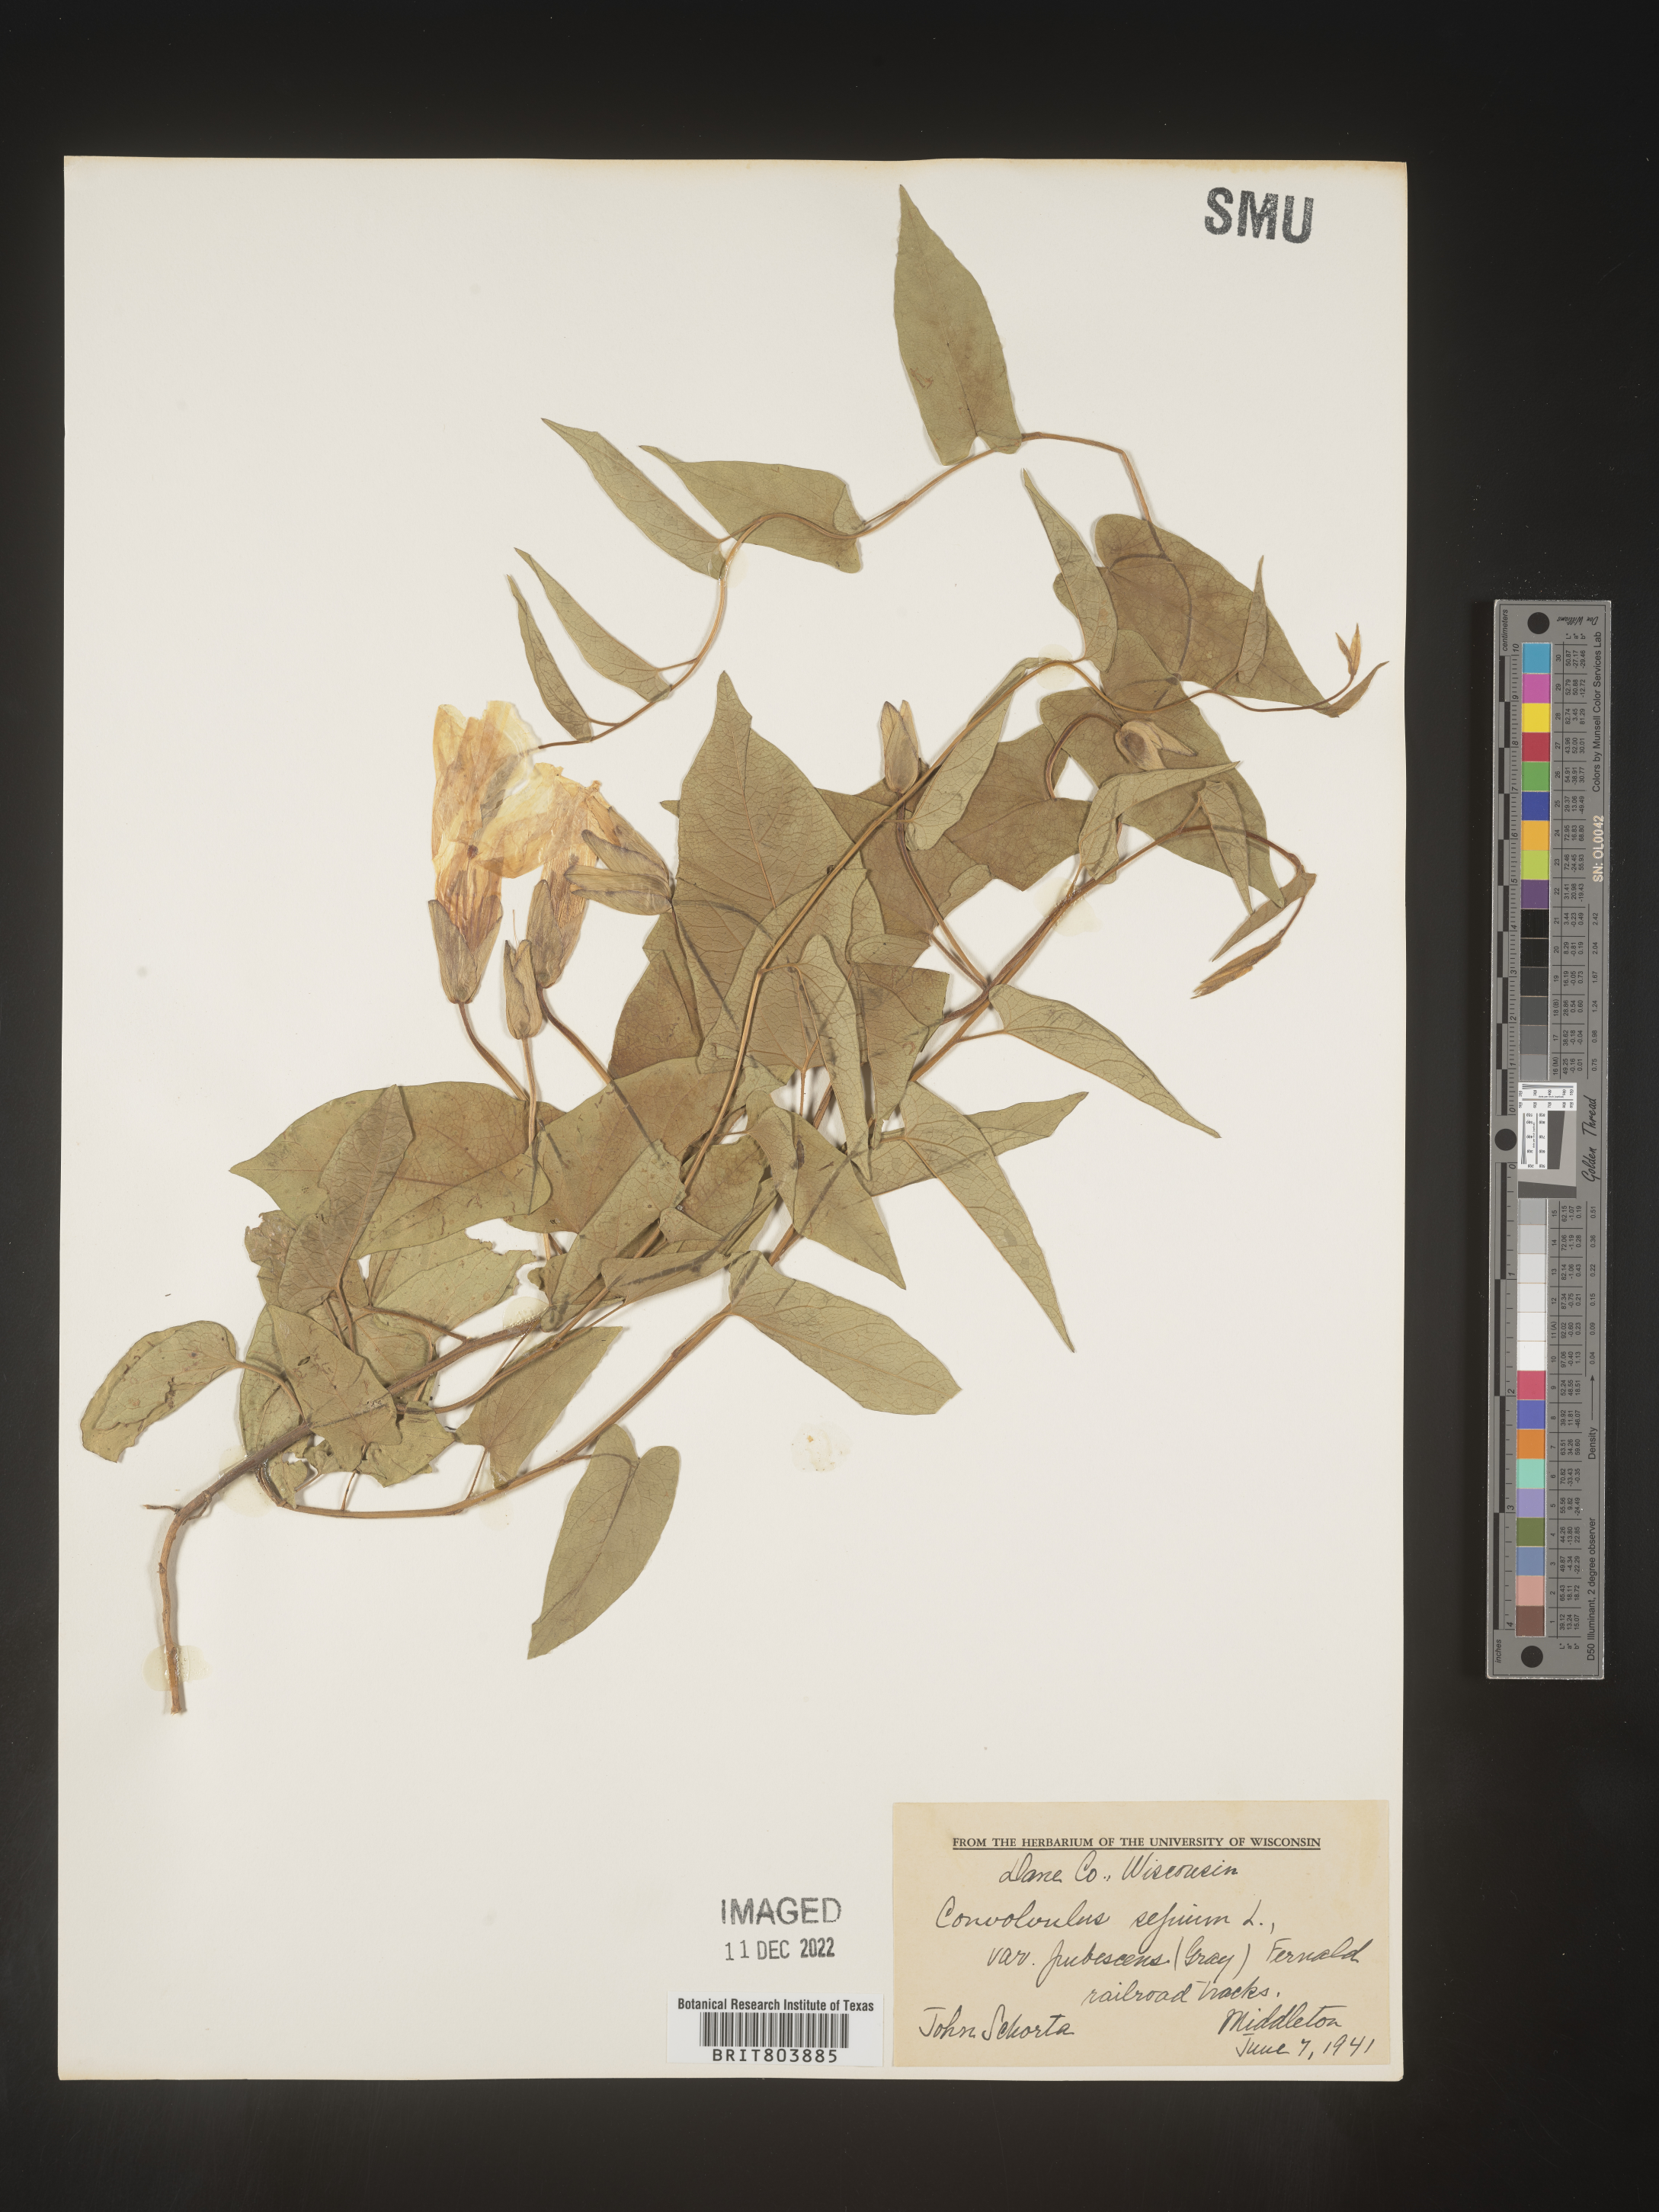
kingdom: Plantae
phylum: Tracheophyta
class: Magnoliopsida
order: Solanales
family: Convolvulaceae
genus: Calystegia
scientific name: Calystegia sepium
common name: Hedge bindweed
